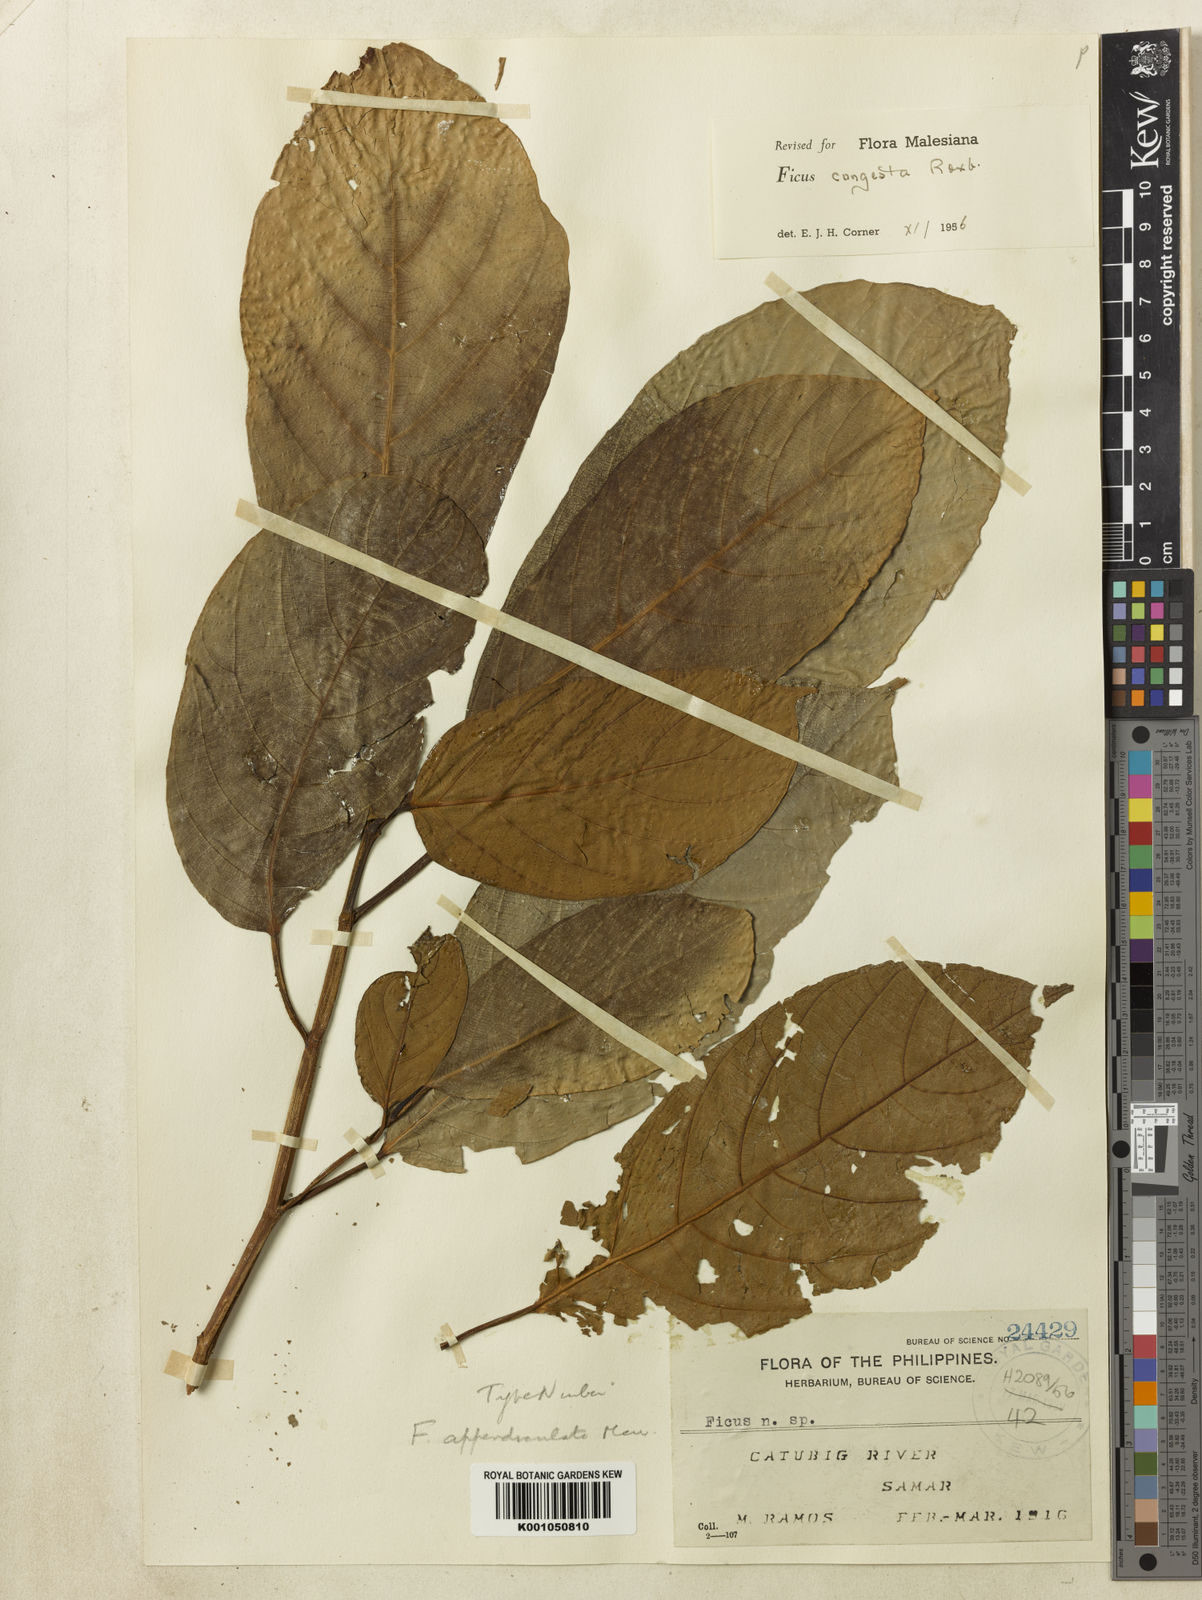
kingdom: Plantae
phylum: Tracheophyta
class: Magnoliopsida
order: Rosales
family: Moraceae
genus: Ficus
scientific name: Ficus congesta
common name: Cluster fig
